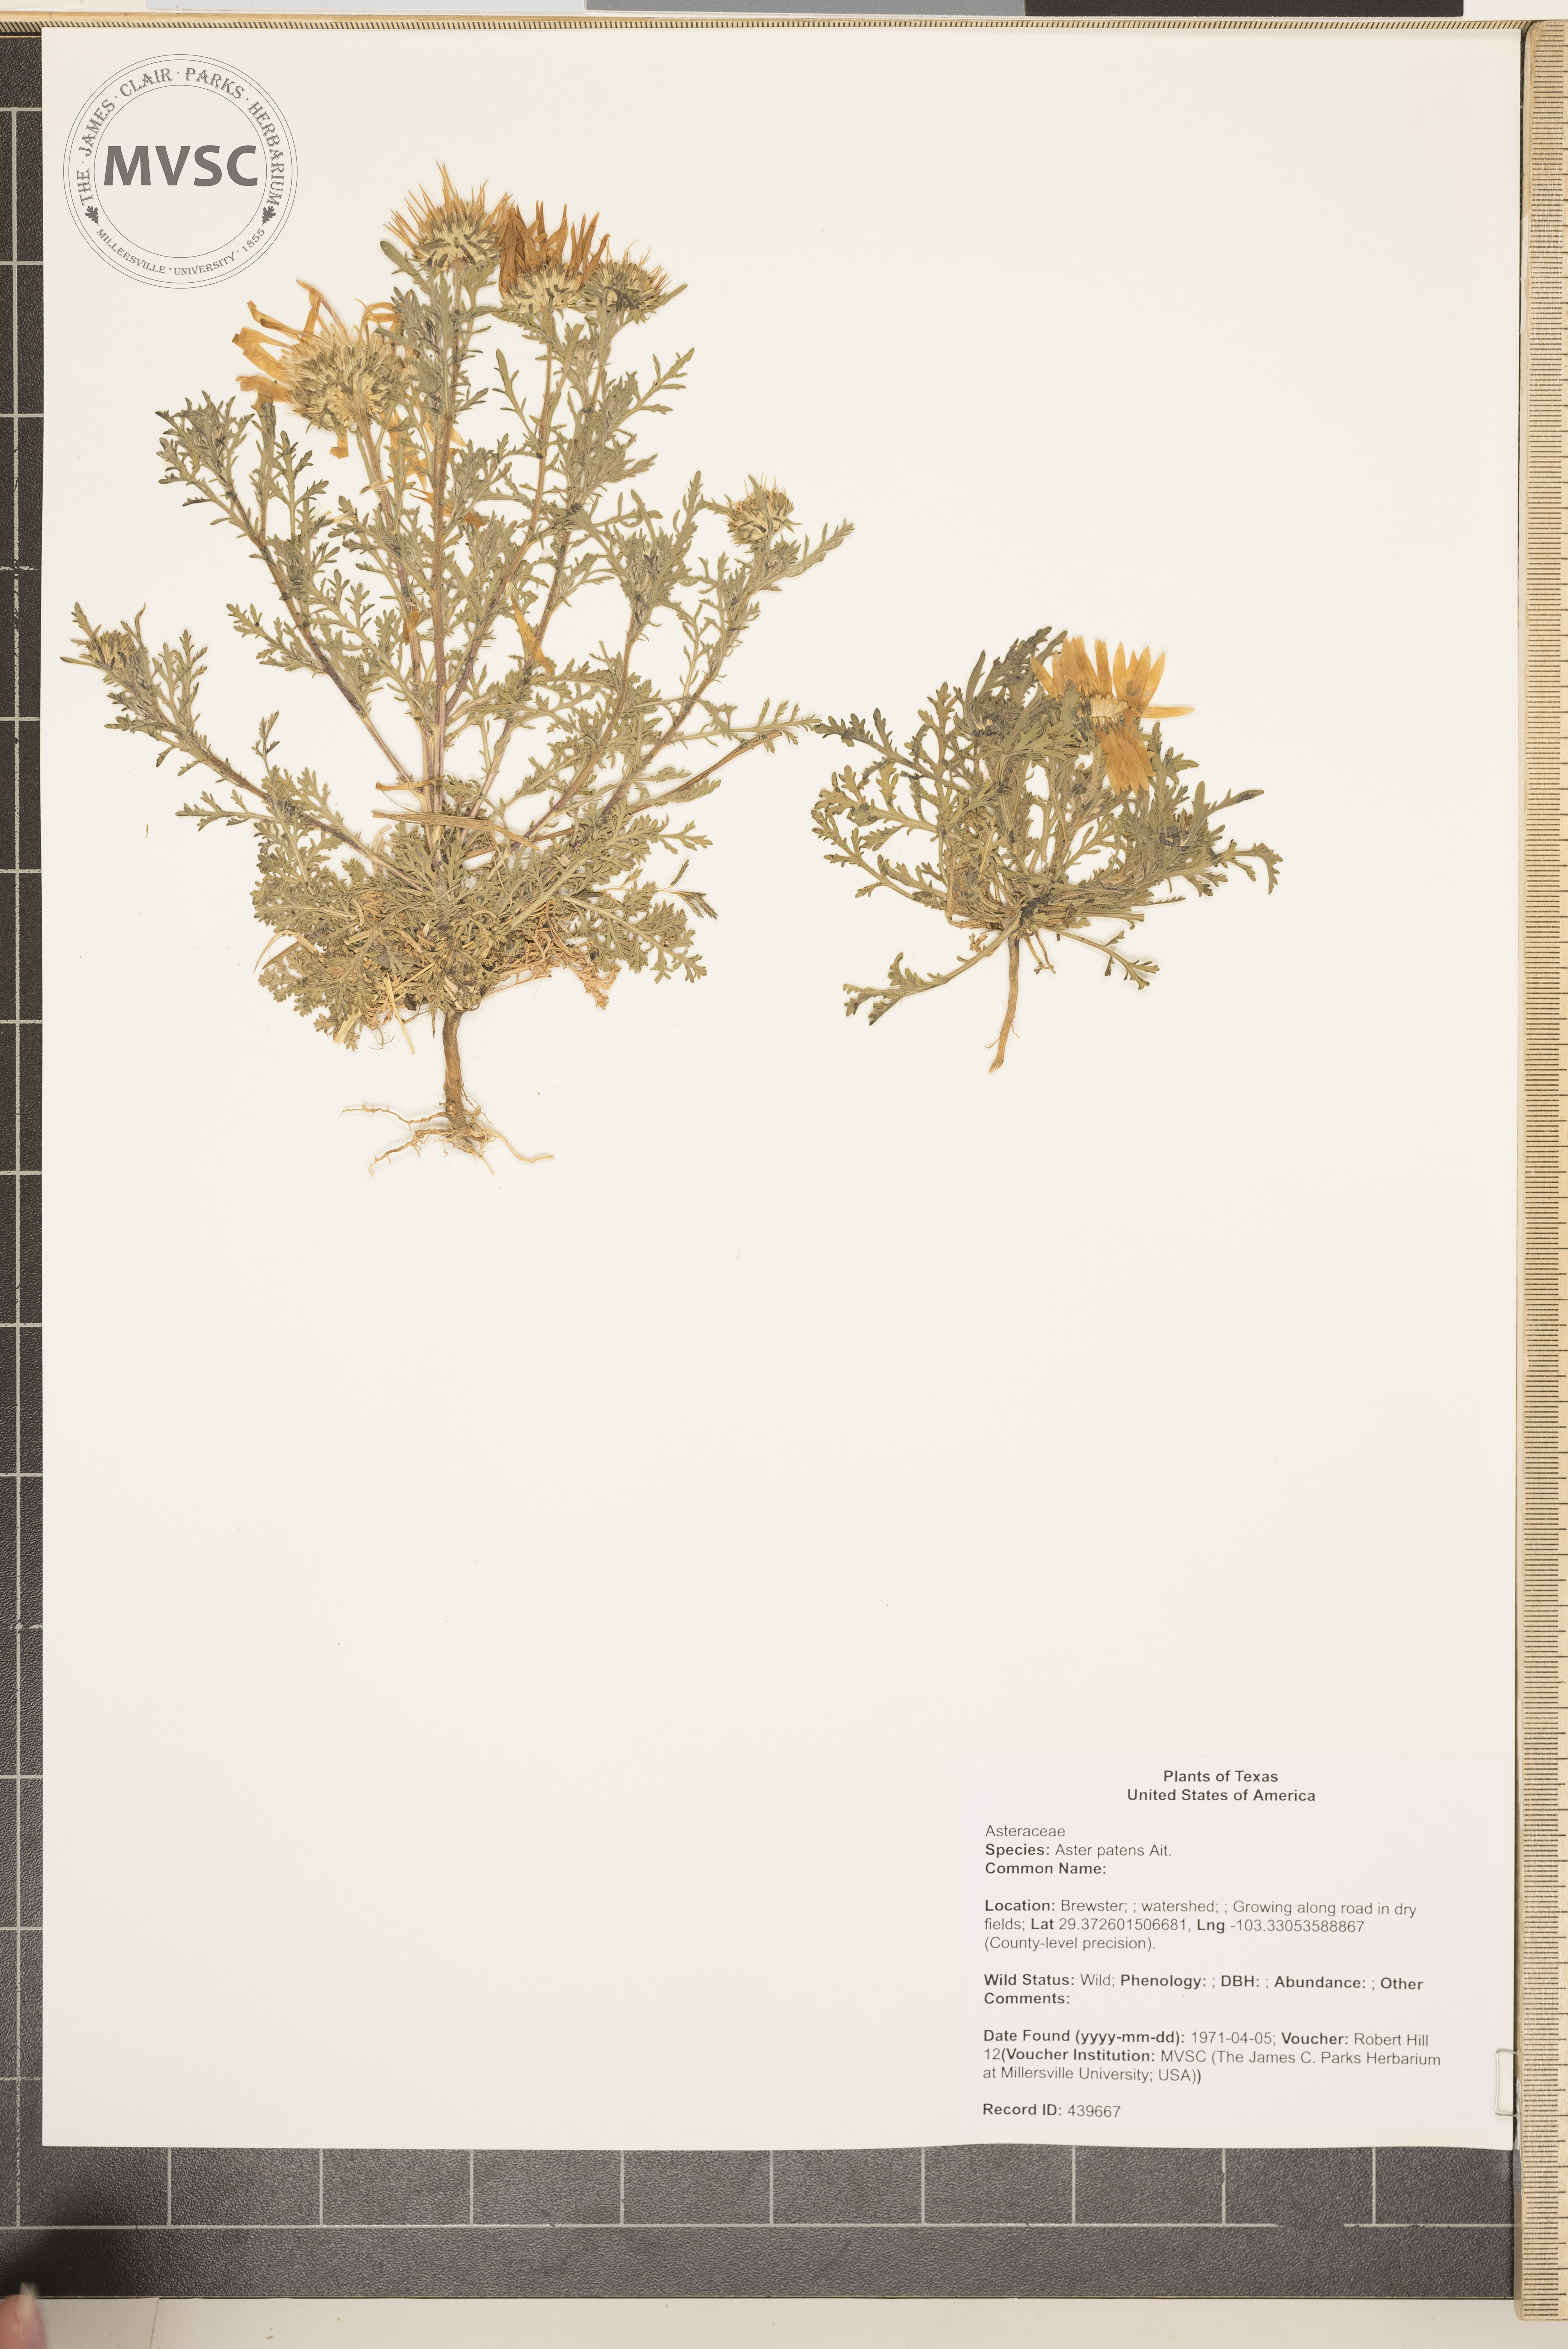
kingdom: Plantae
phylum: Tracheophyta
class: Magnoliopsida
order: Asterales
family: Asteraceae
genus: Symphyotrichum
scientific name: Symphyotrichum patens
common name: Late purple aster
